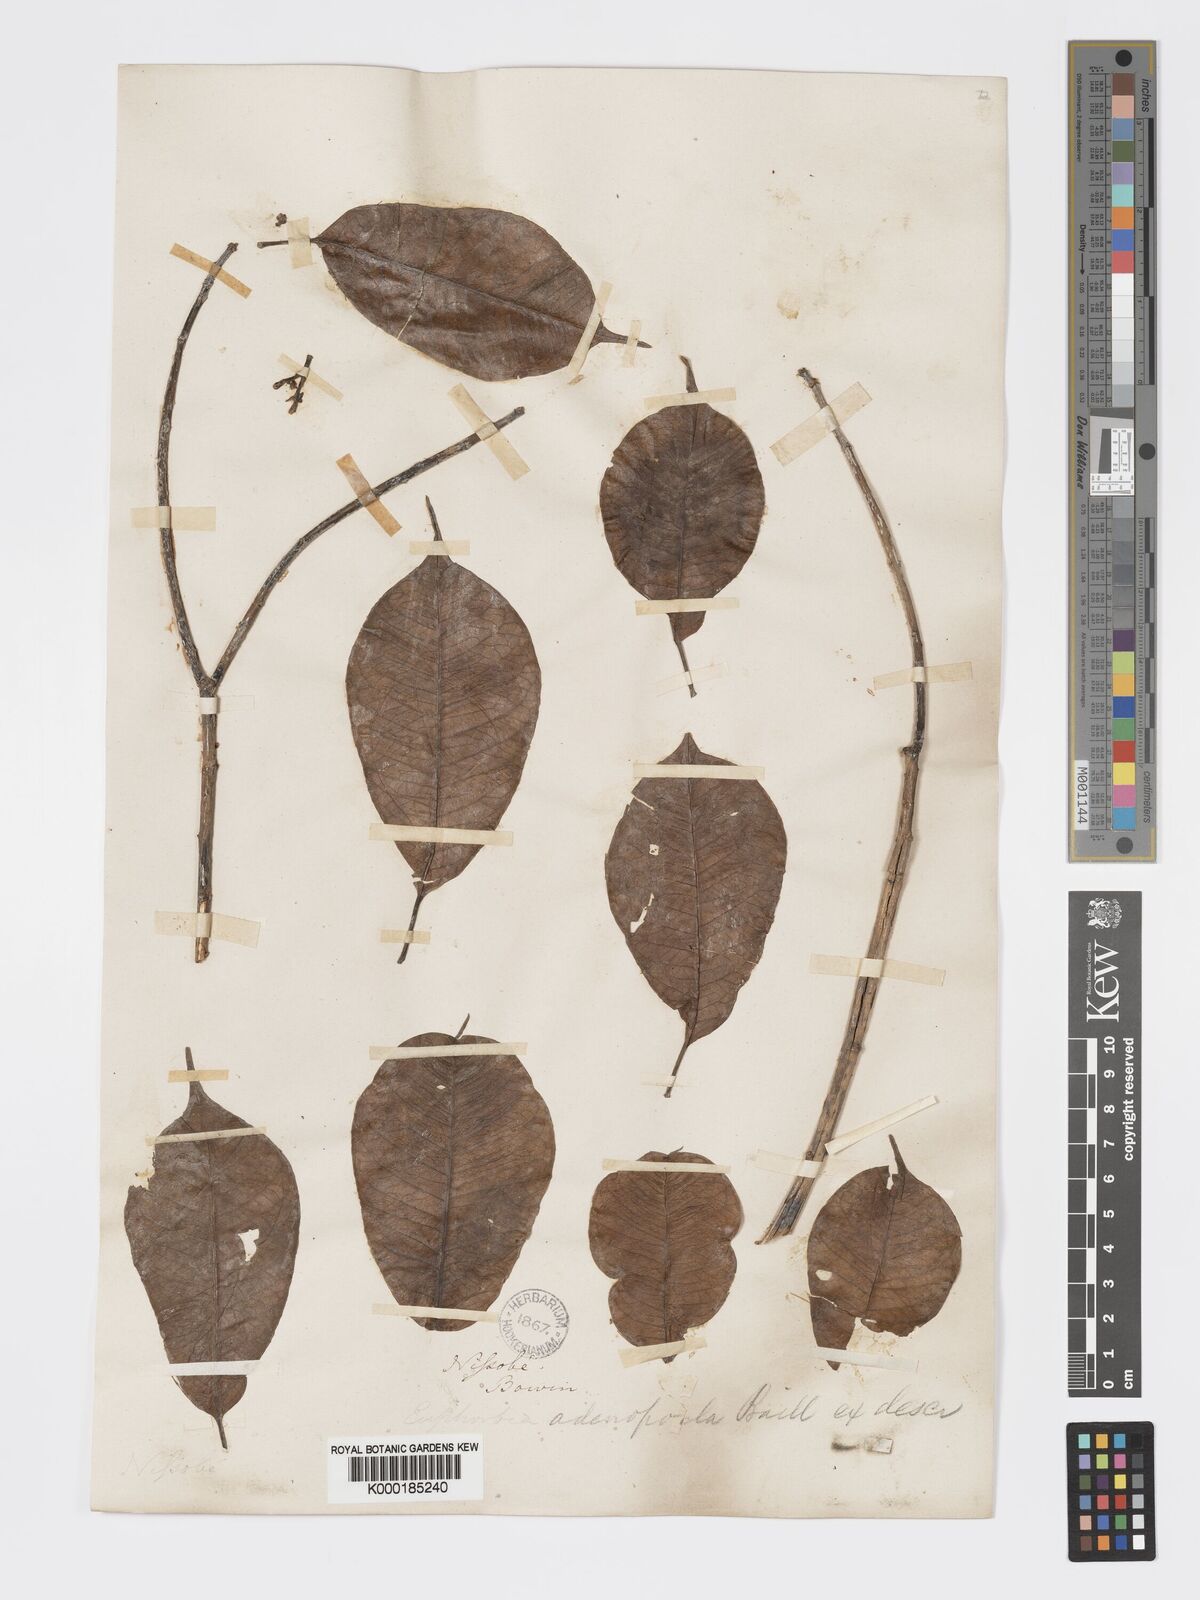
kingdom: Plantae
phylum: Tracheophyta
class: Magnoliopsida
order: Malpighiales
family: Euphorbiaceae
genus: Euphorbia
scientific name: Euphorbia adenopoda
